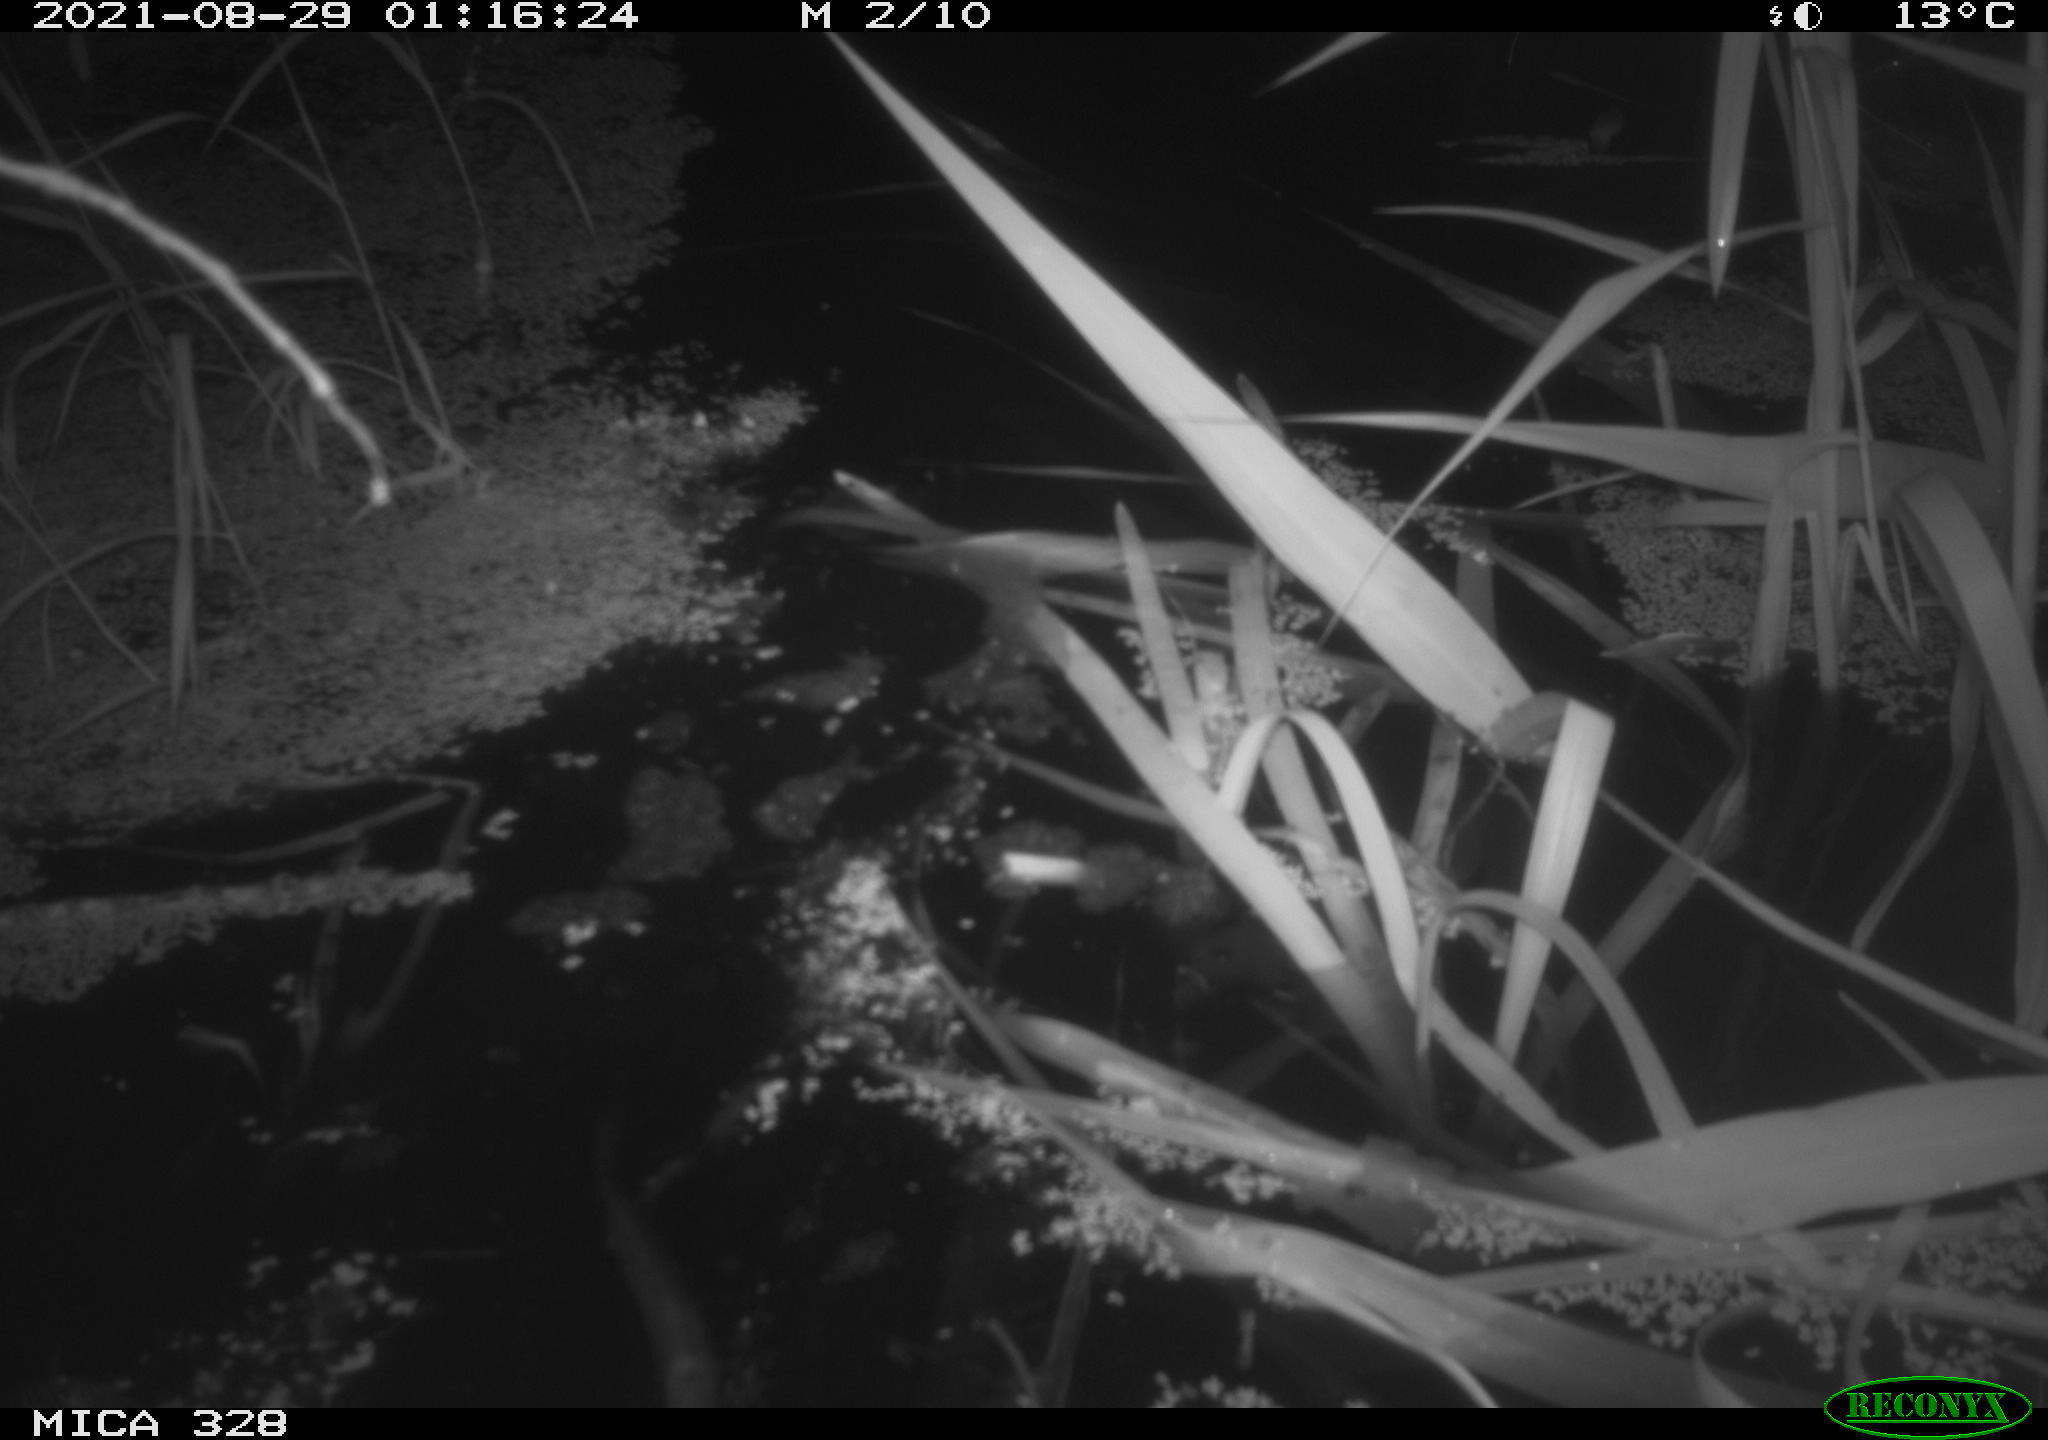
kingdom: Animalia
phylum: Chordata
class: Mammalia
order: Rodentia
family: Cricetidae
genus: Ondatra
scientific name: Ondatra zibethicus
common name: Muskrat
